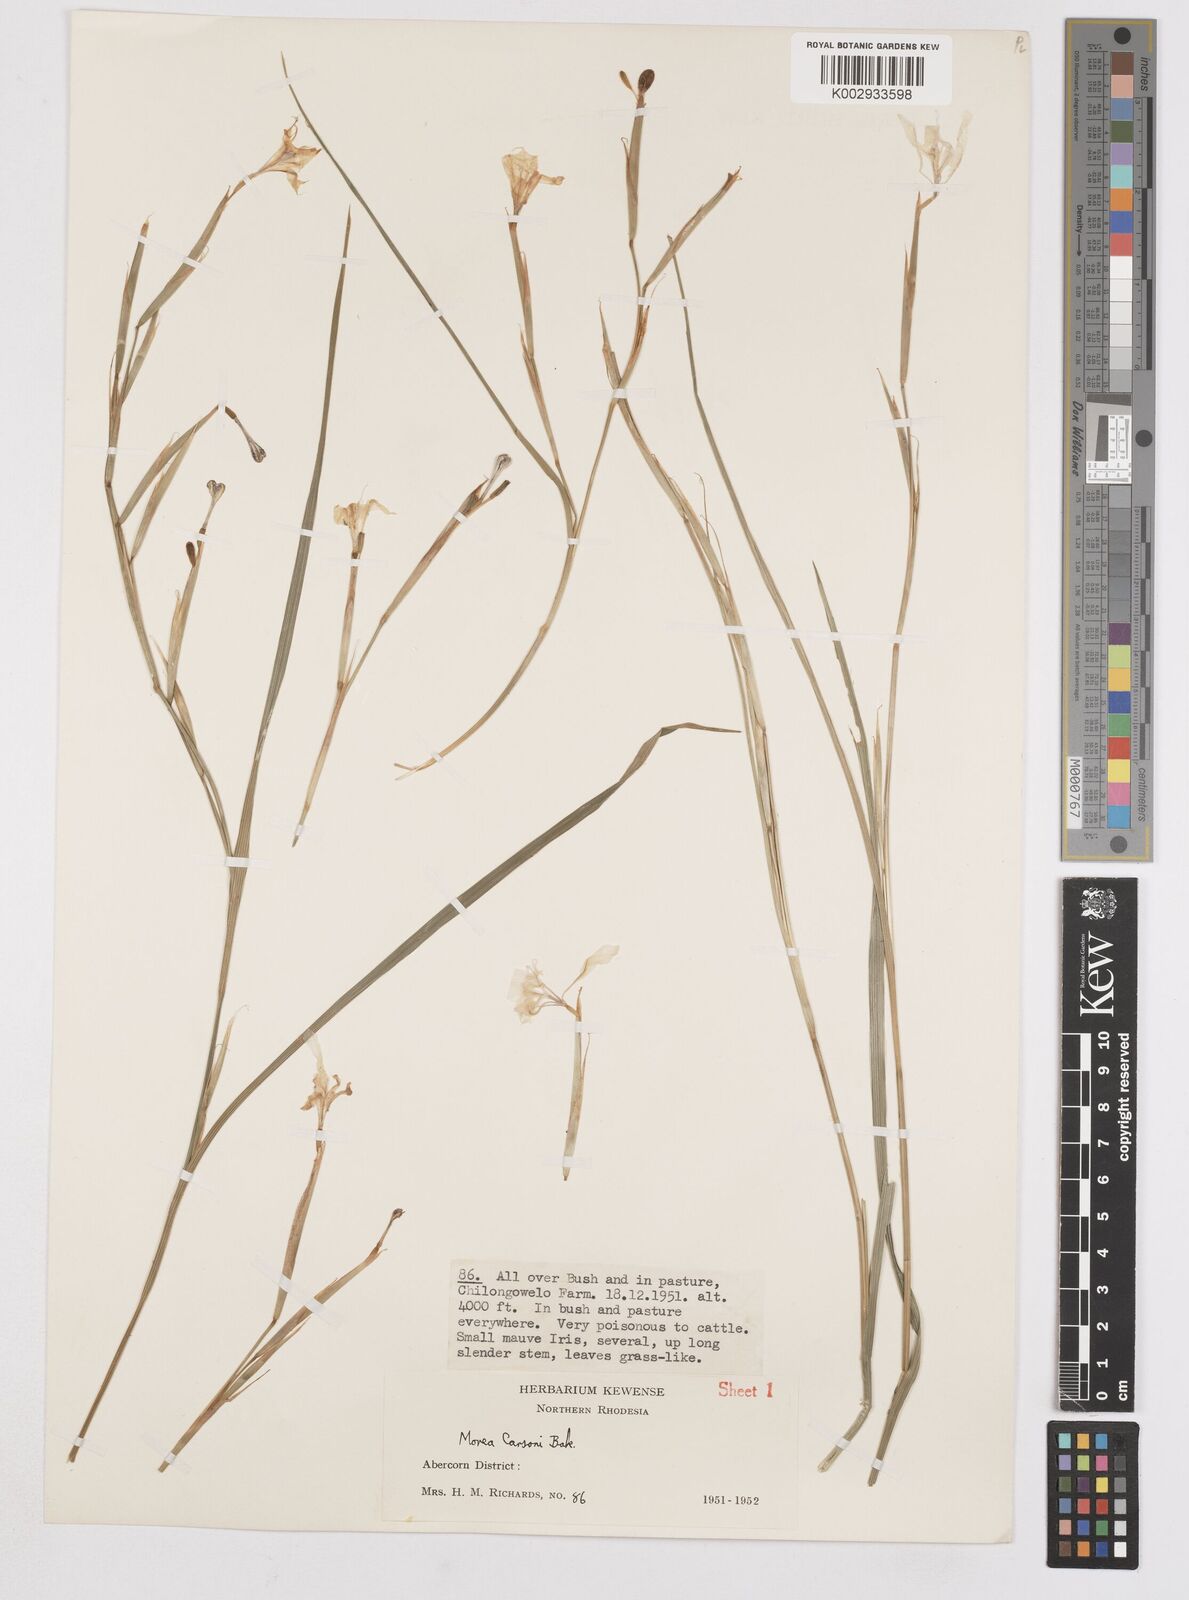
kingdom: Plantae
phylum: Tracheophyta
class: Liliopsida
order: Asparagales
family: Iridaceae
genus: Moraea
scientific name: Moraea carsonii
